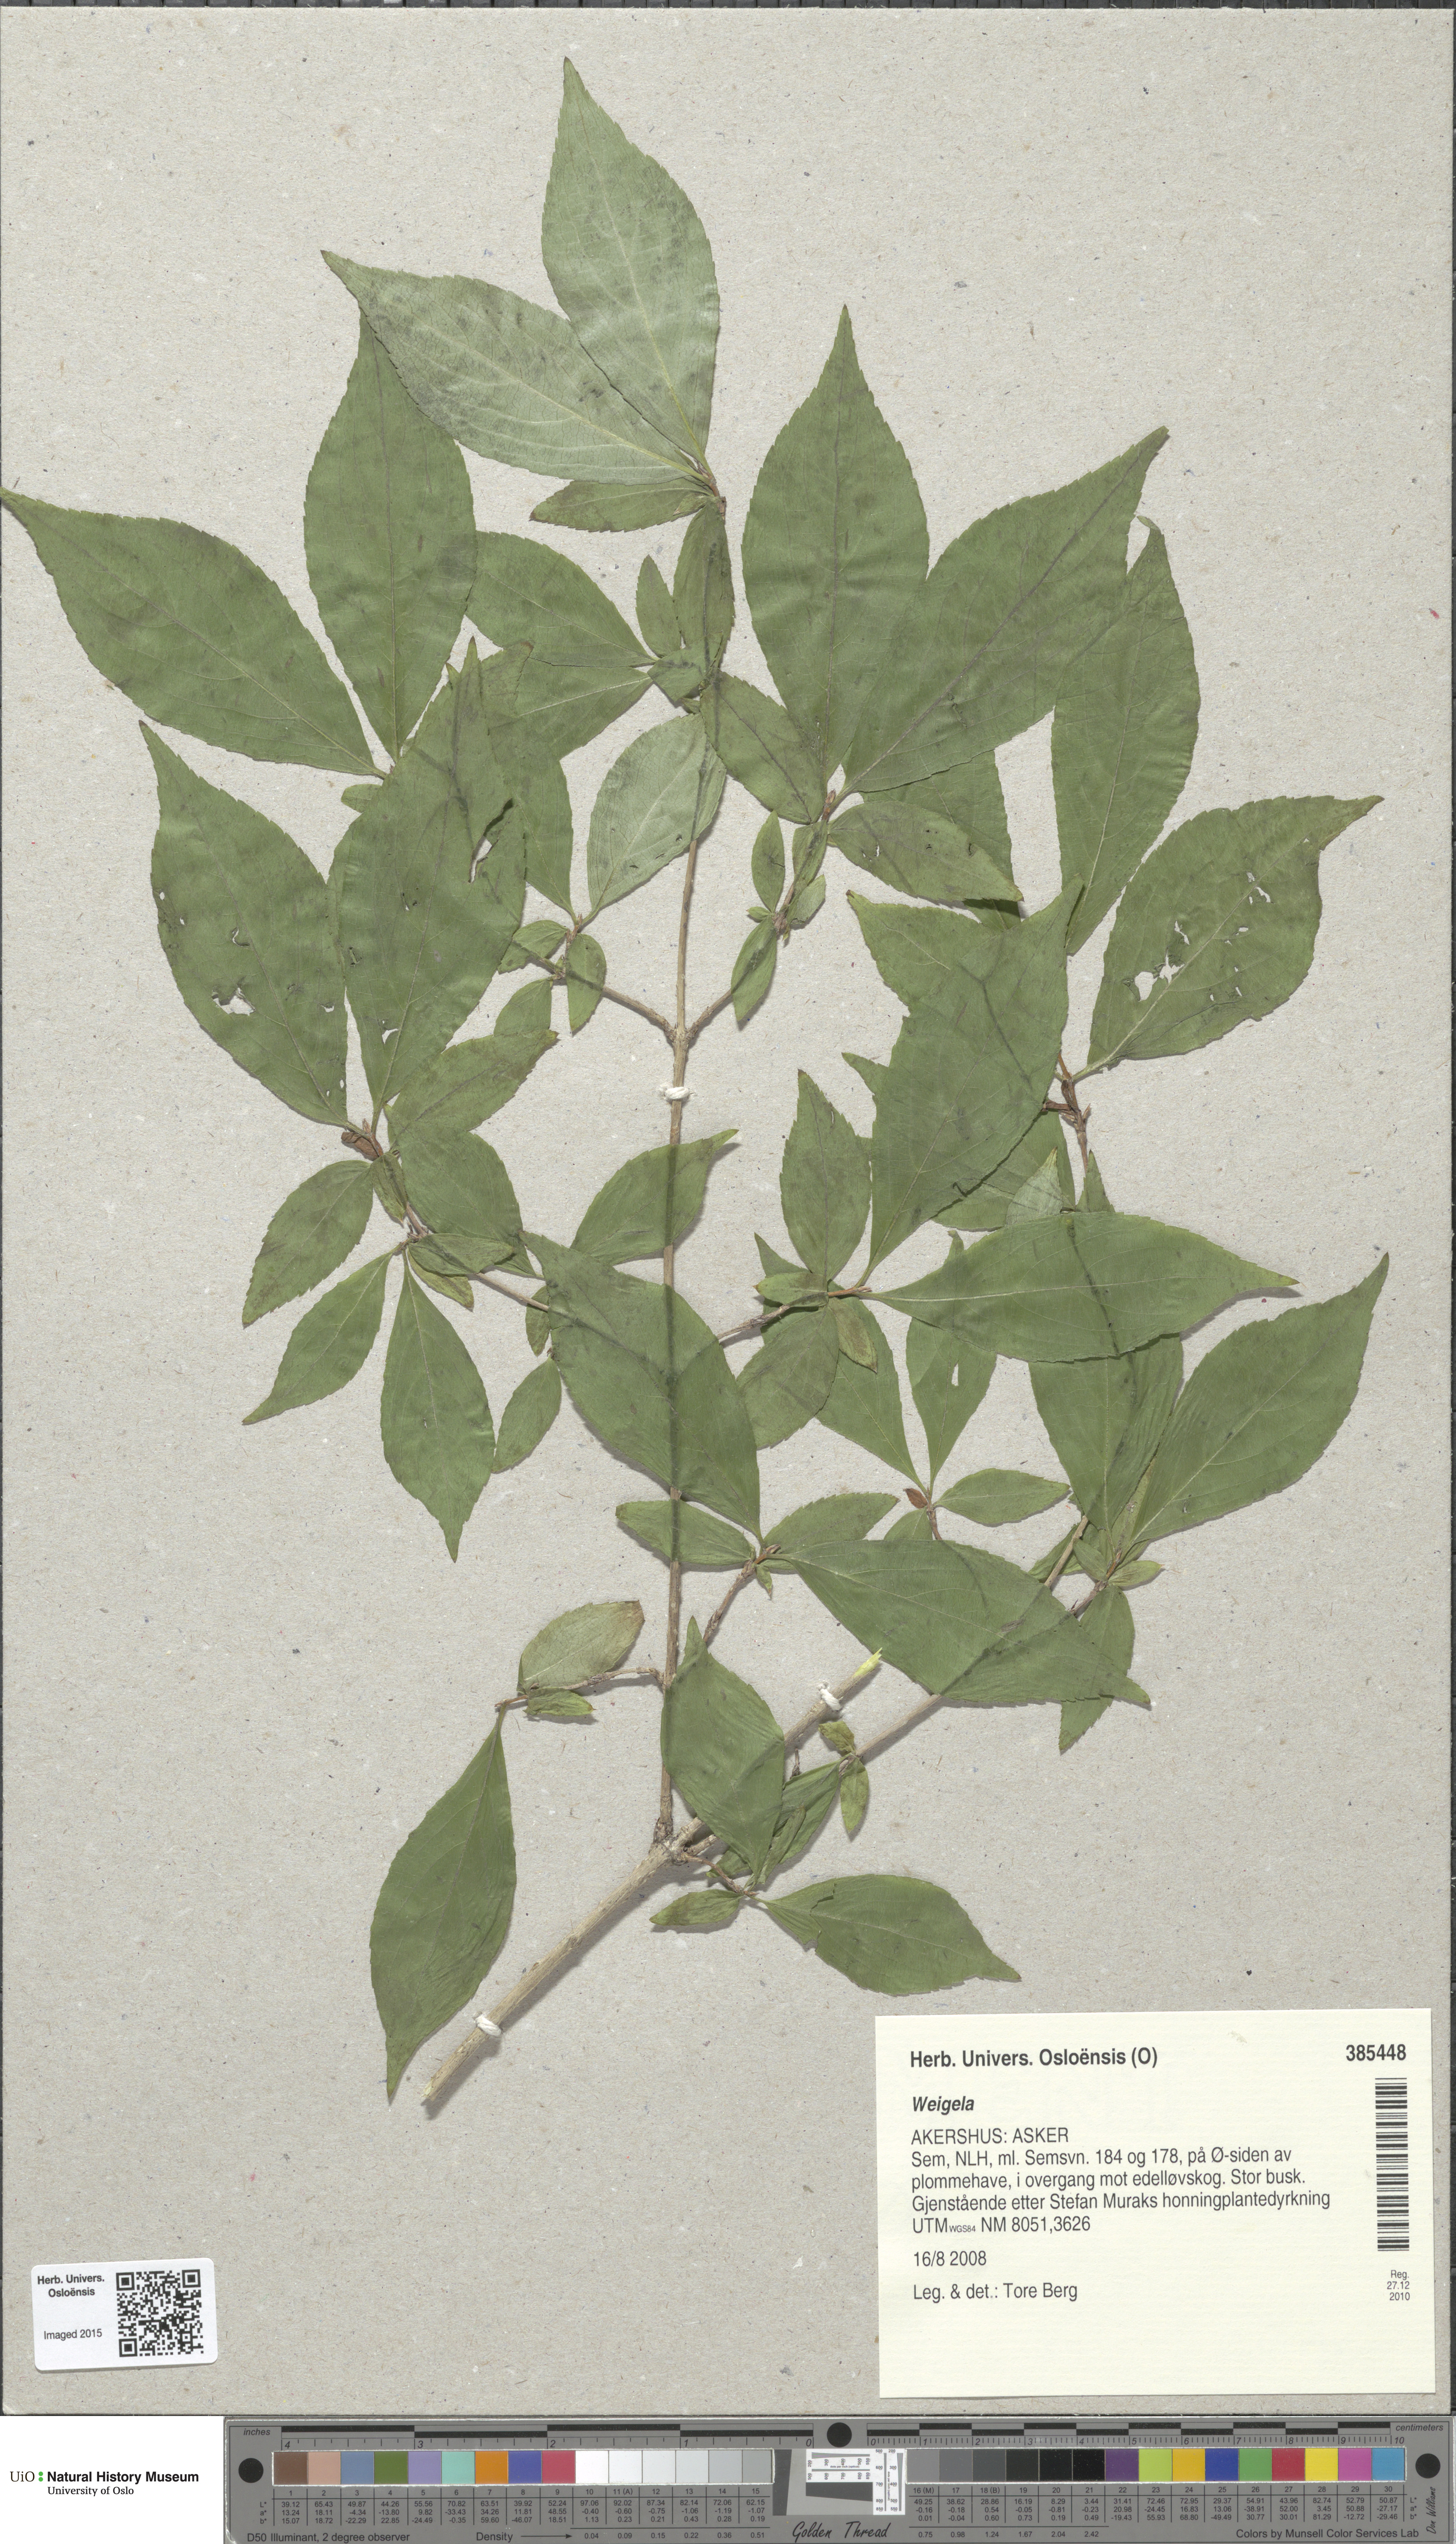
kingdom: Plantae
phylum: Tracheophyta
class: Magnoliopsida
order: Celastrales
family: Celastraceae
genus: Euonymus
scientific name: Euonymus
